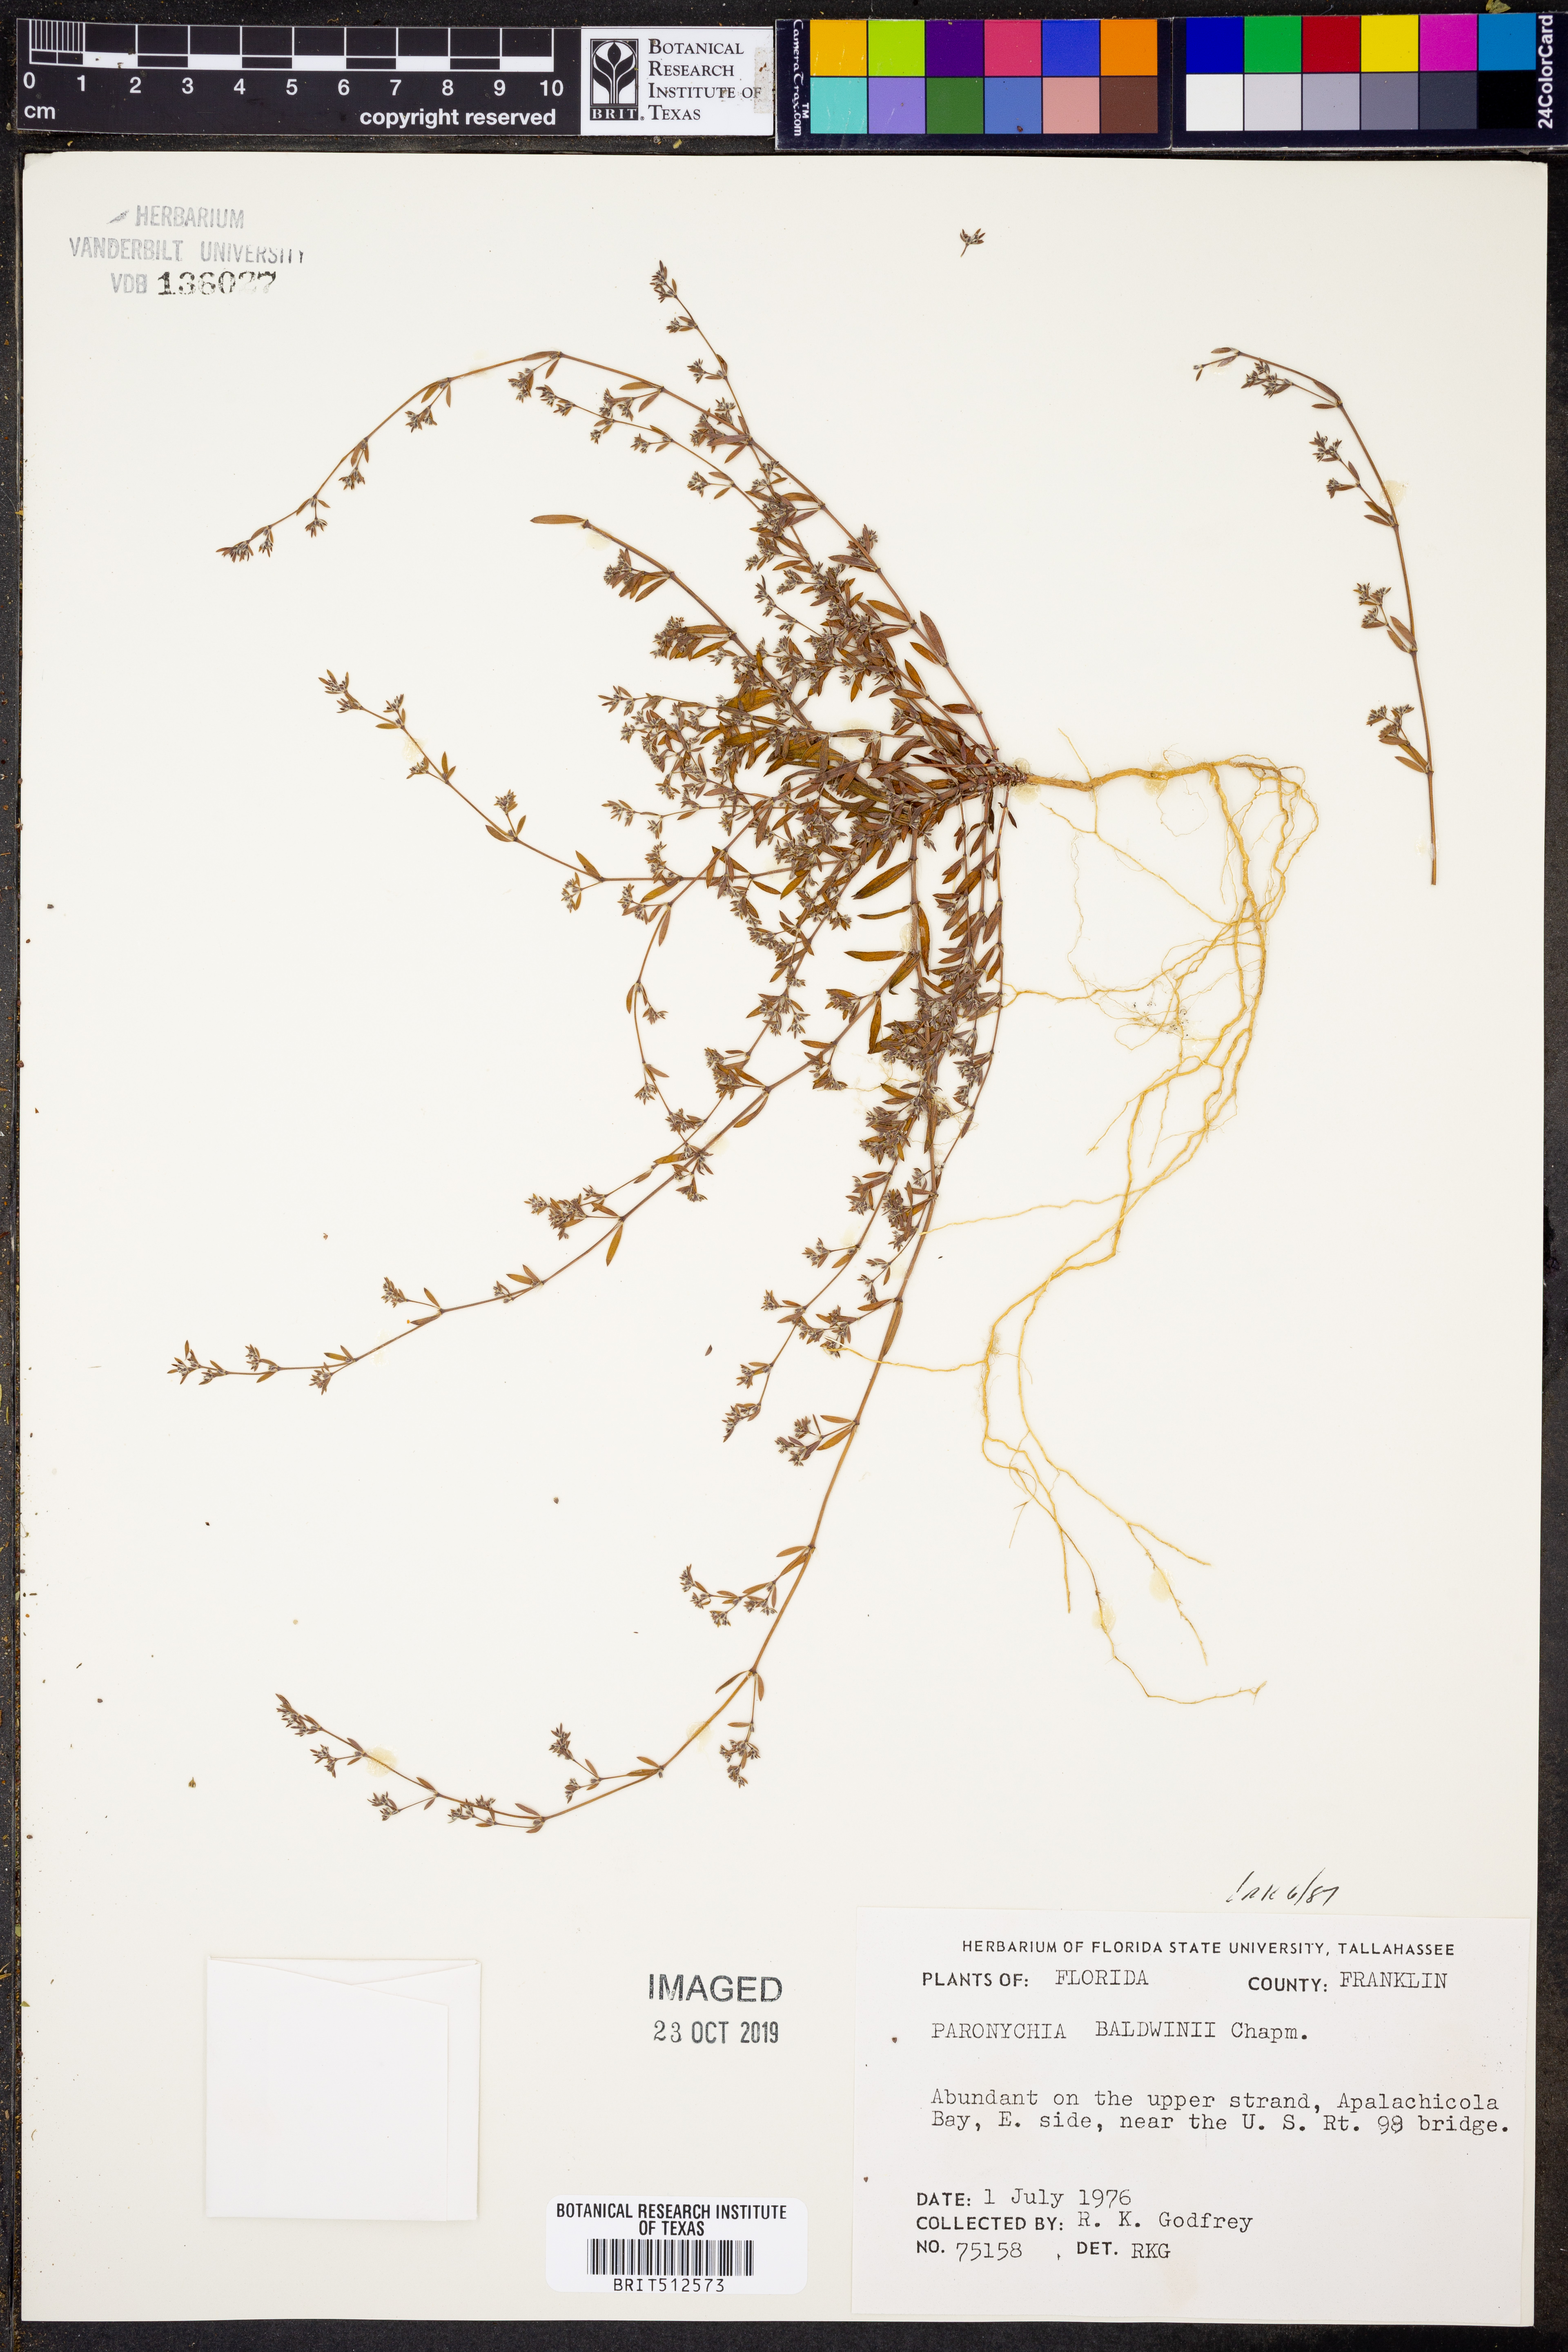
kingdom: Plantae
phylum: Tracheophyta
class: Magnoliopsida
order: Caryophyllales
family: Caryophyllaceae
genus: Paronychia
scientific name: Paronychia baldwinii
